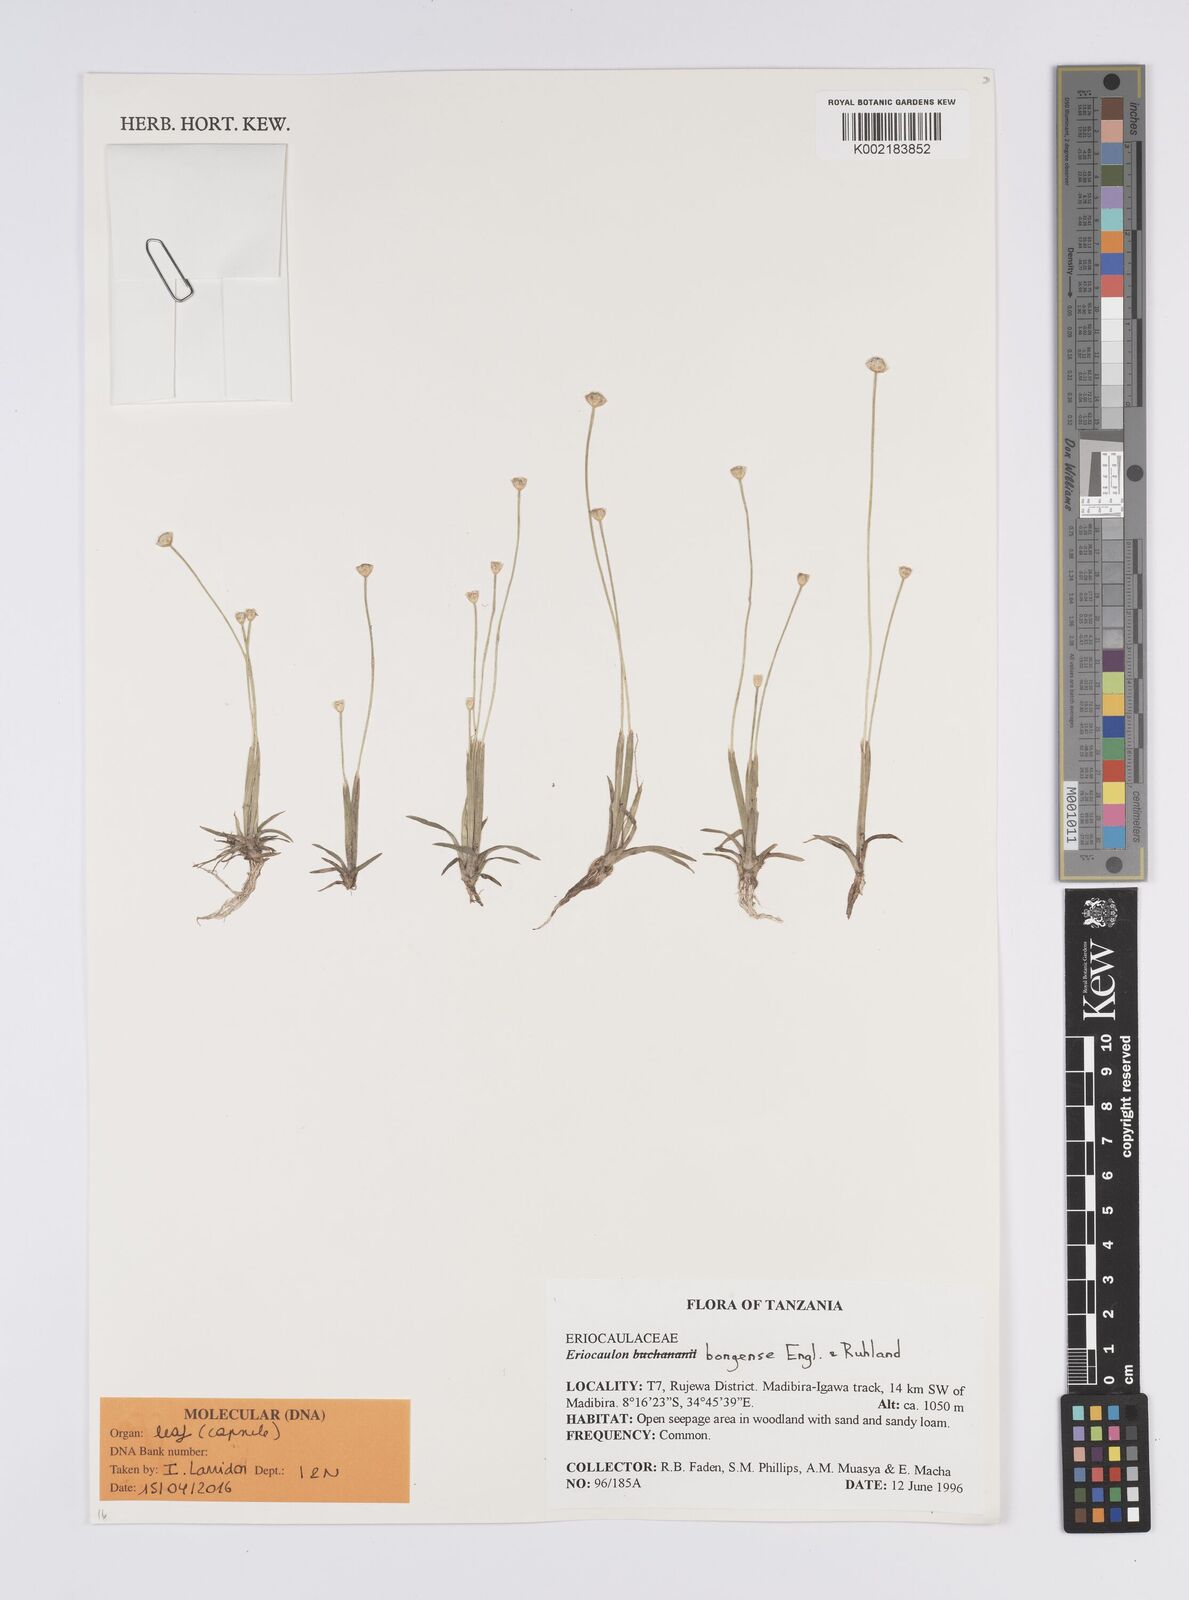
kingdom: Plantae
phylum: Tracheophyta
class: Liliopsida
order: Poales
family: Eriocaulaceae
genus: Eriocaulon
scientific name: Eriocaulon bongense
